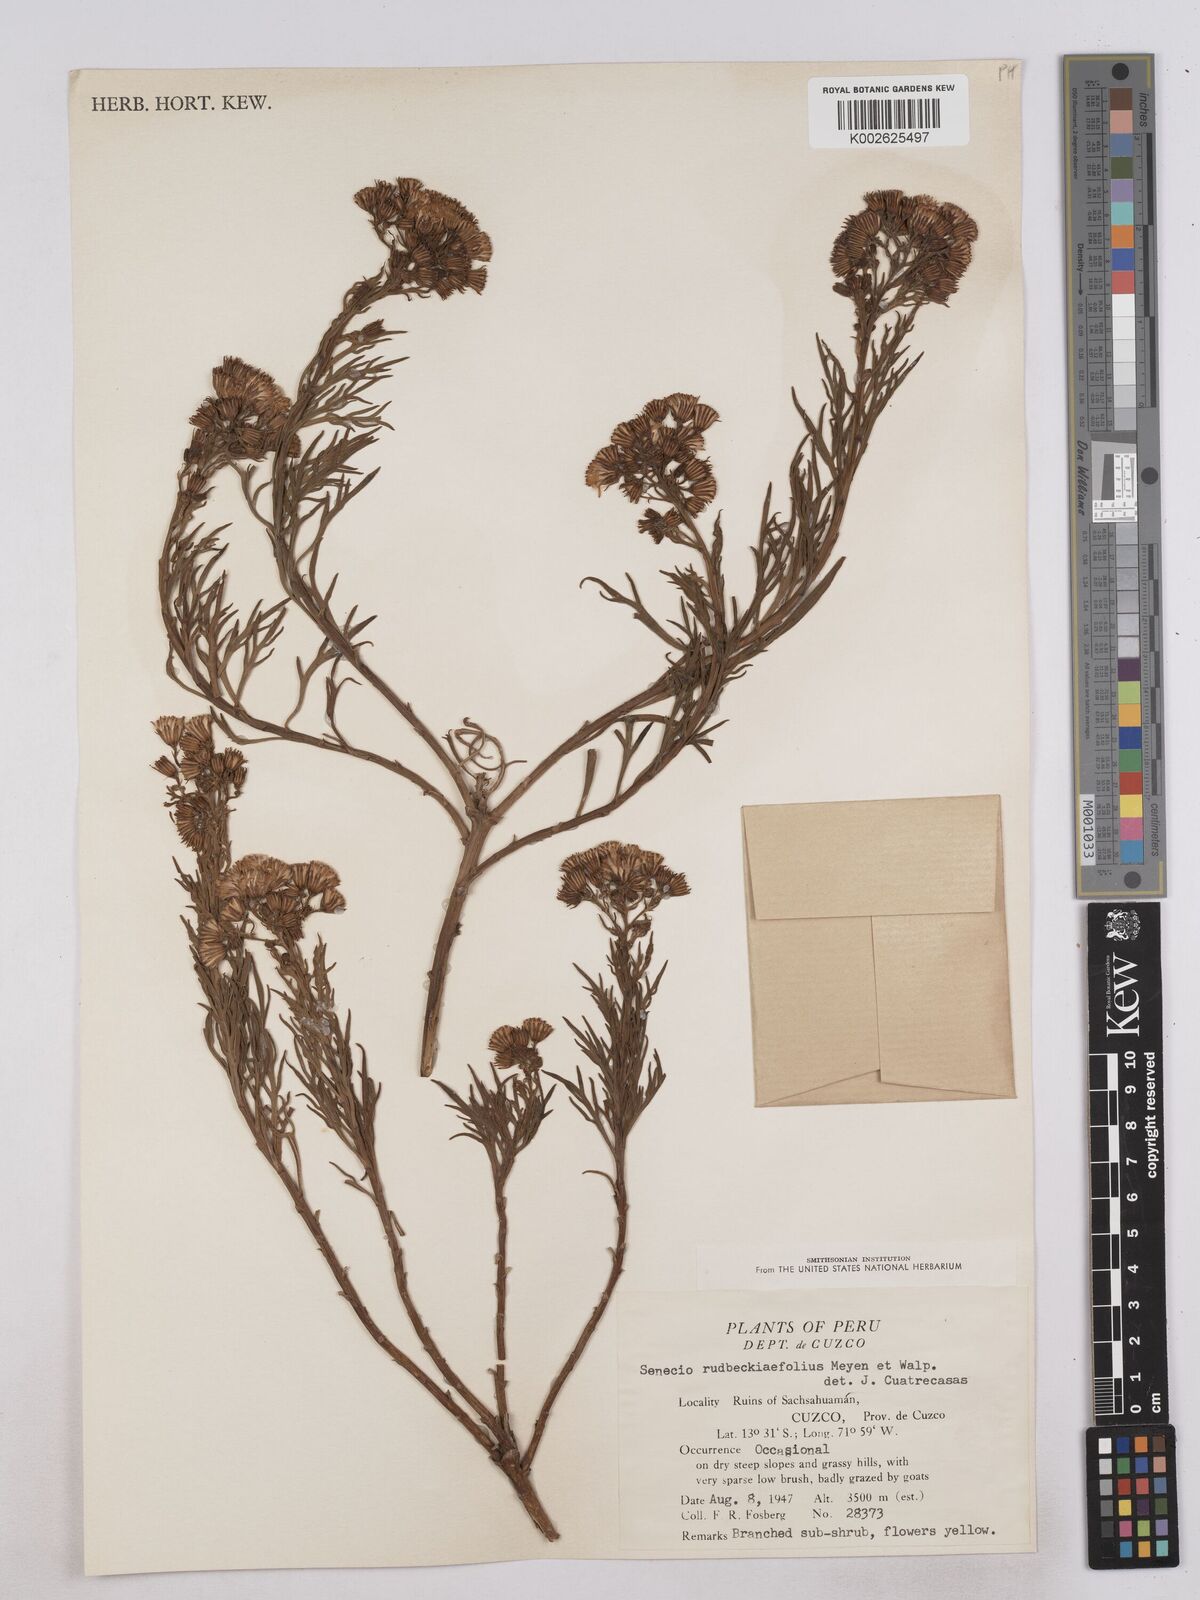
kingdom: Plantae
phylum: Tracheophyta
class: Magnoliopsida
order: Asterales
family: Asteraceae
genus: Senecio
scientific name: Senecio rudbeckiifolius
